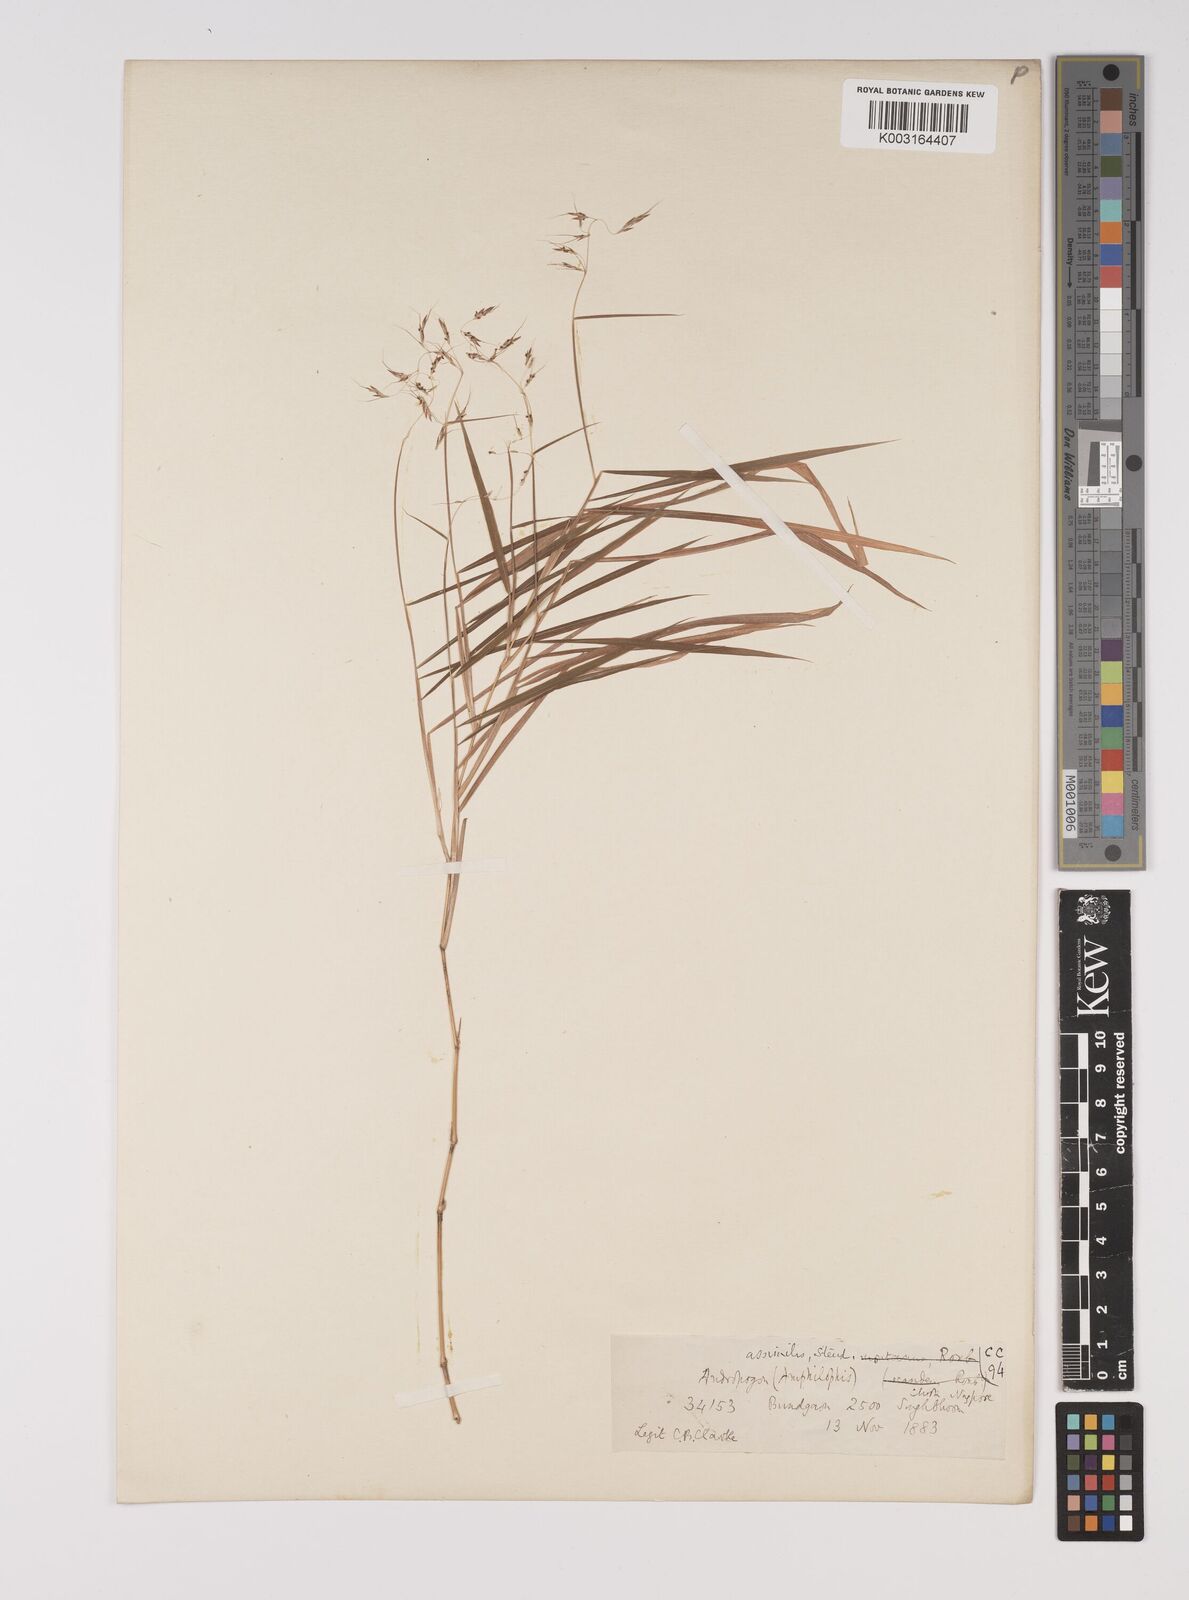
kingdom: Plantae
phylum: Tracheophyta
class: Liliopsida
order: Poales
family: Poaceae
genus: Capillipedium
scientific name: Capillipedium assimile
